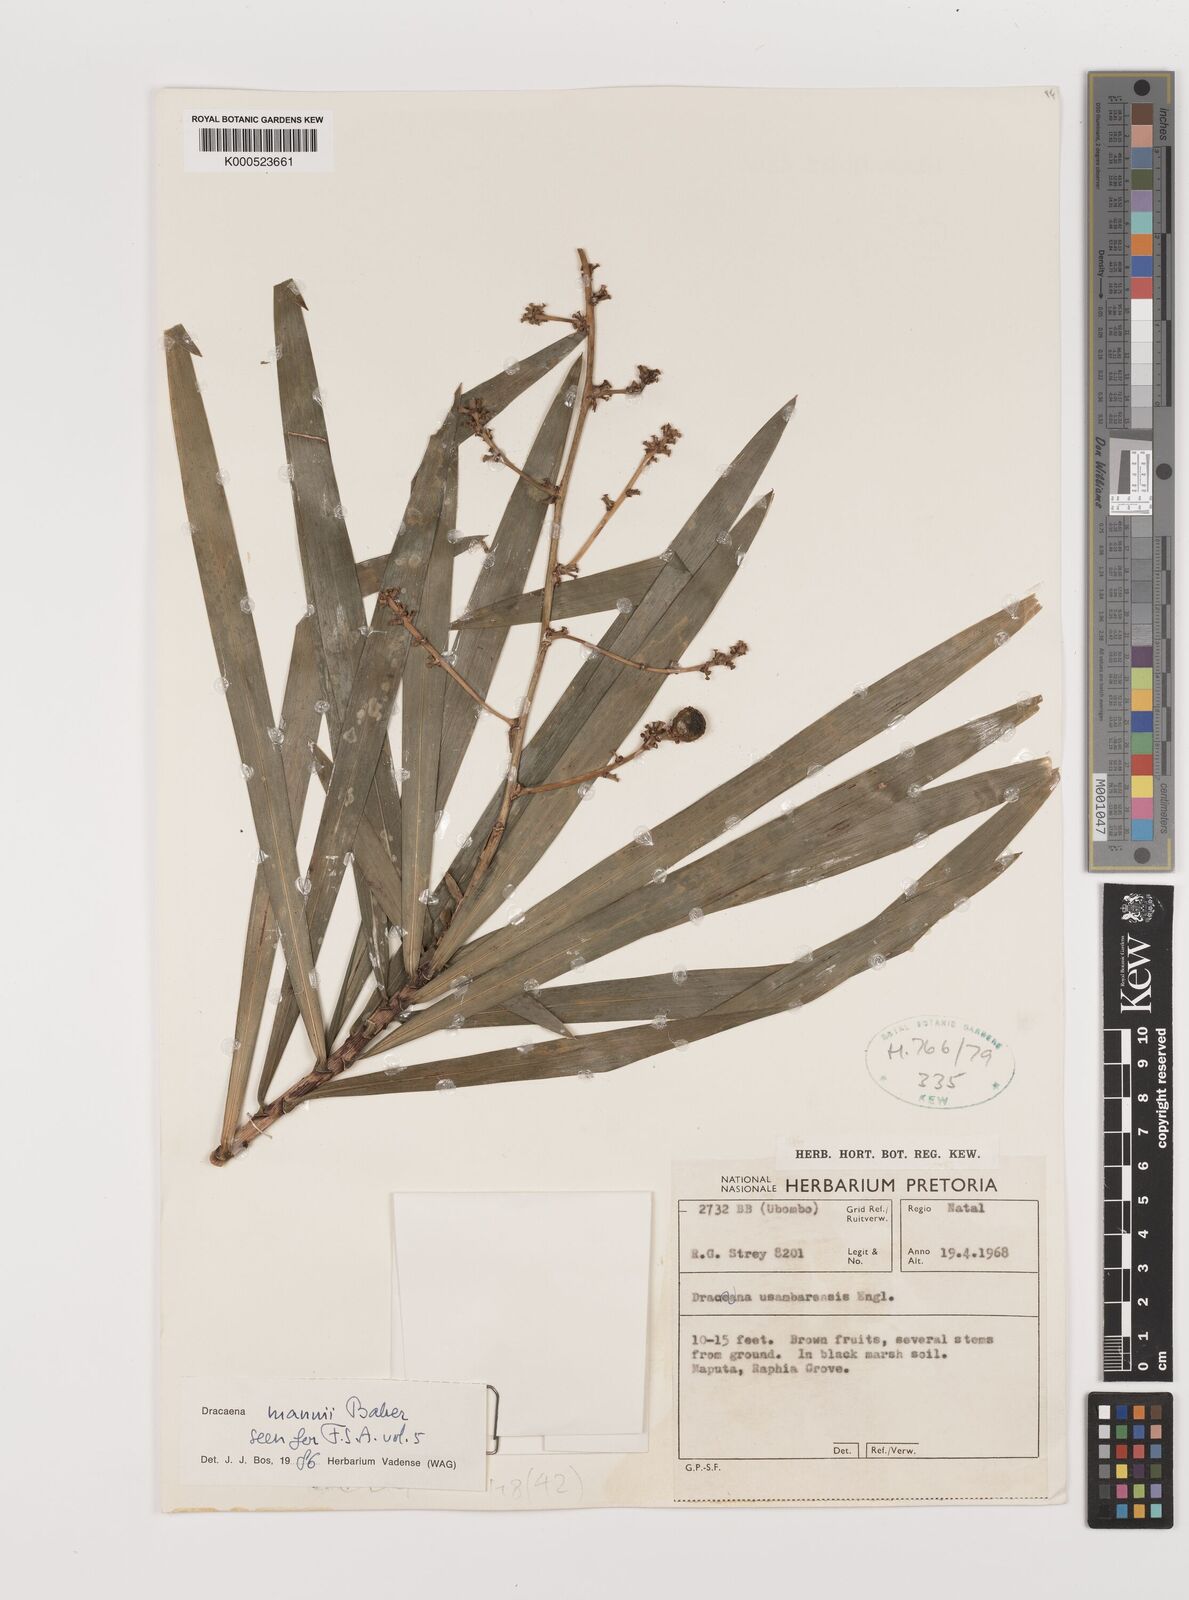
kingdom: Plantae
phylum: Tracheophyta
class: Liliopsida
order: Asparagales
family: Asparagaceae
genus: Dracaena
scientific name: Dracaena mannii
